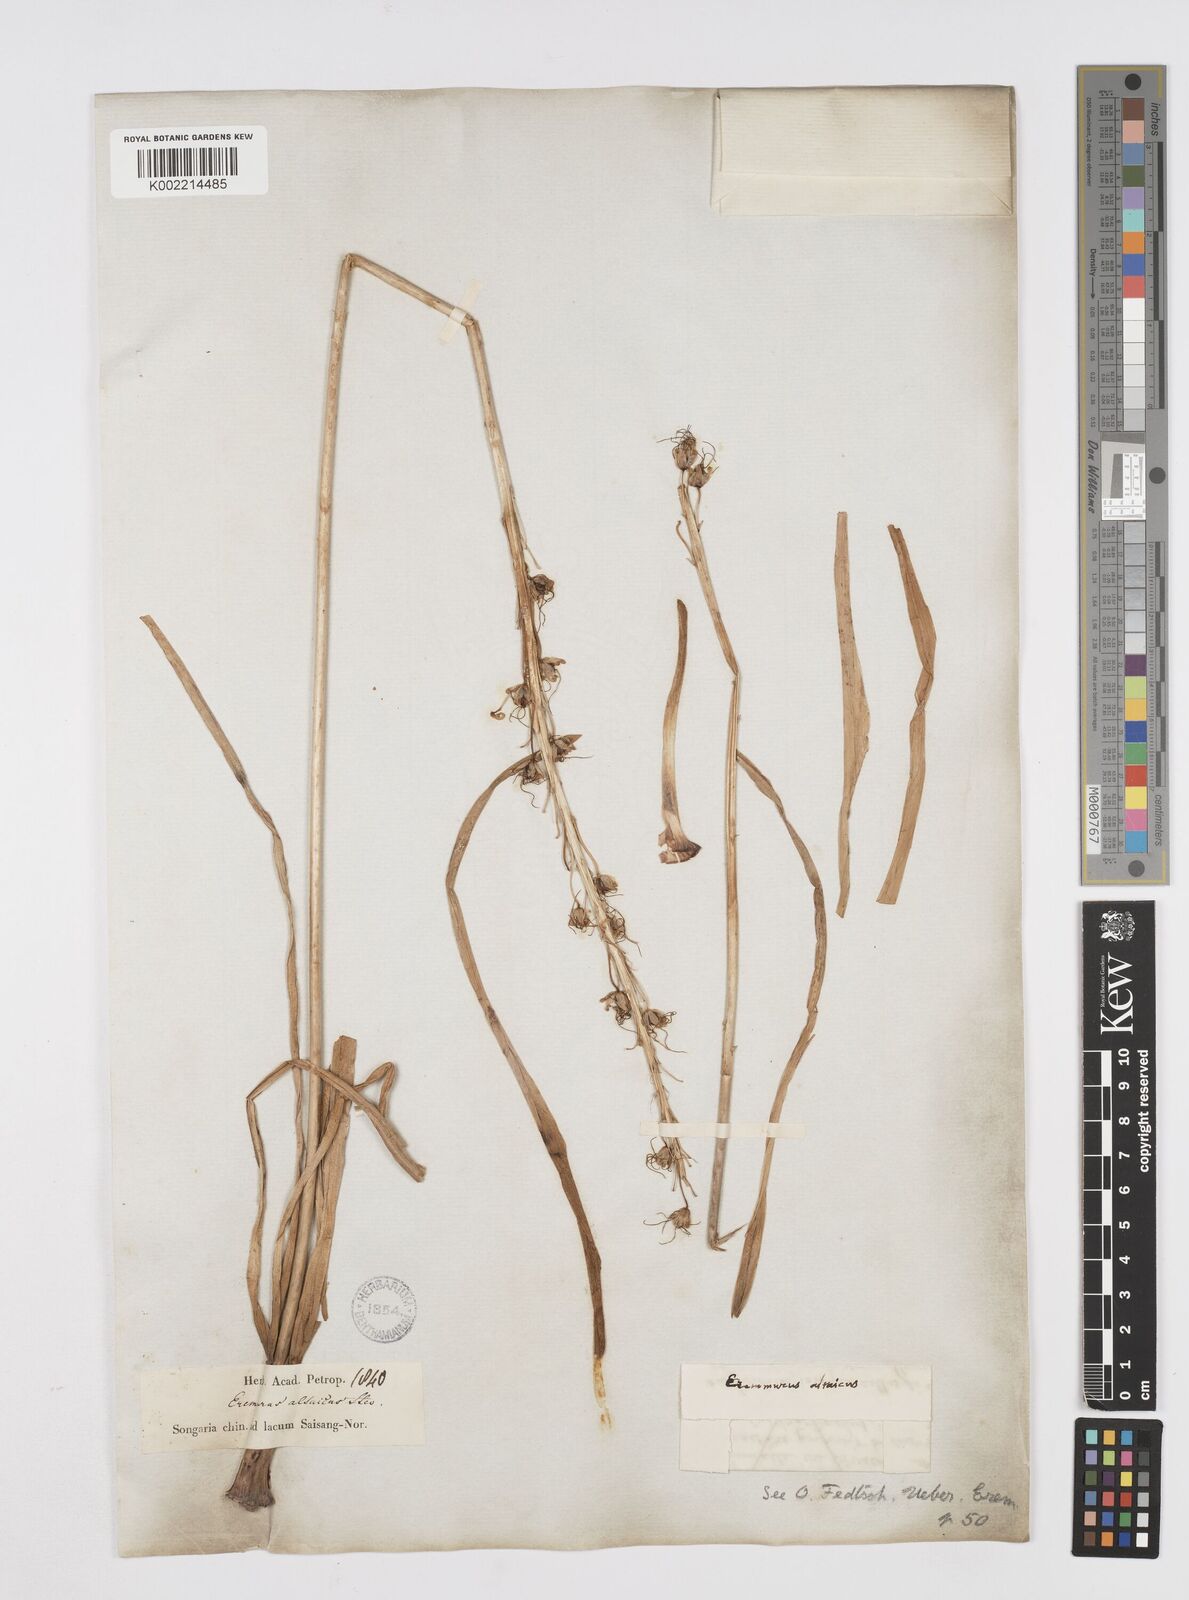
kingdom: Plantae
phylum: Tracheophyta
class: Liliopsida
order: Asparagales
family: Asphodelaceae
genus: Eremurus
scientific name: Eremurus altaicus
